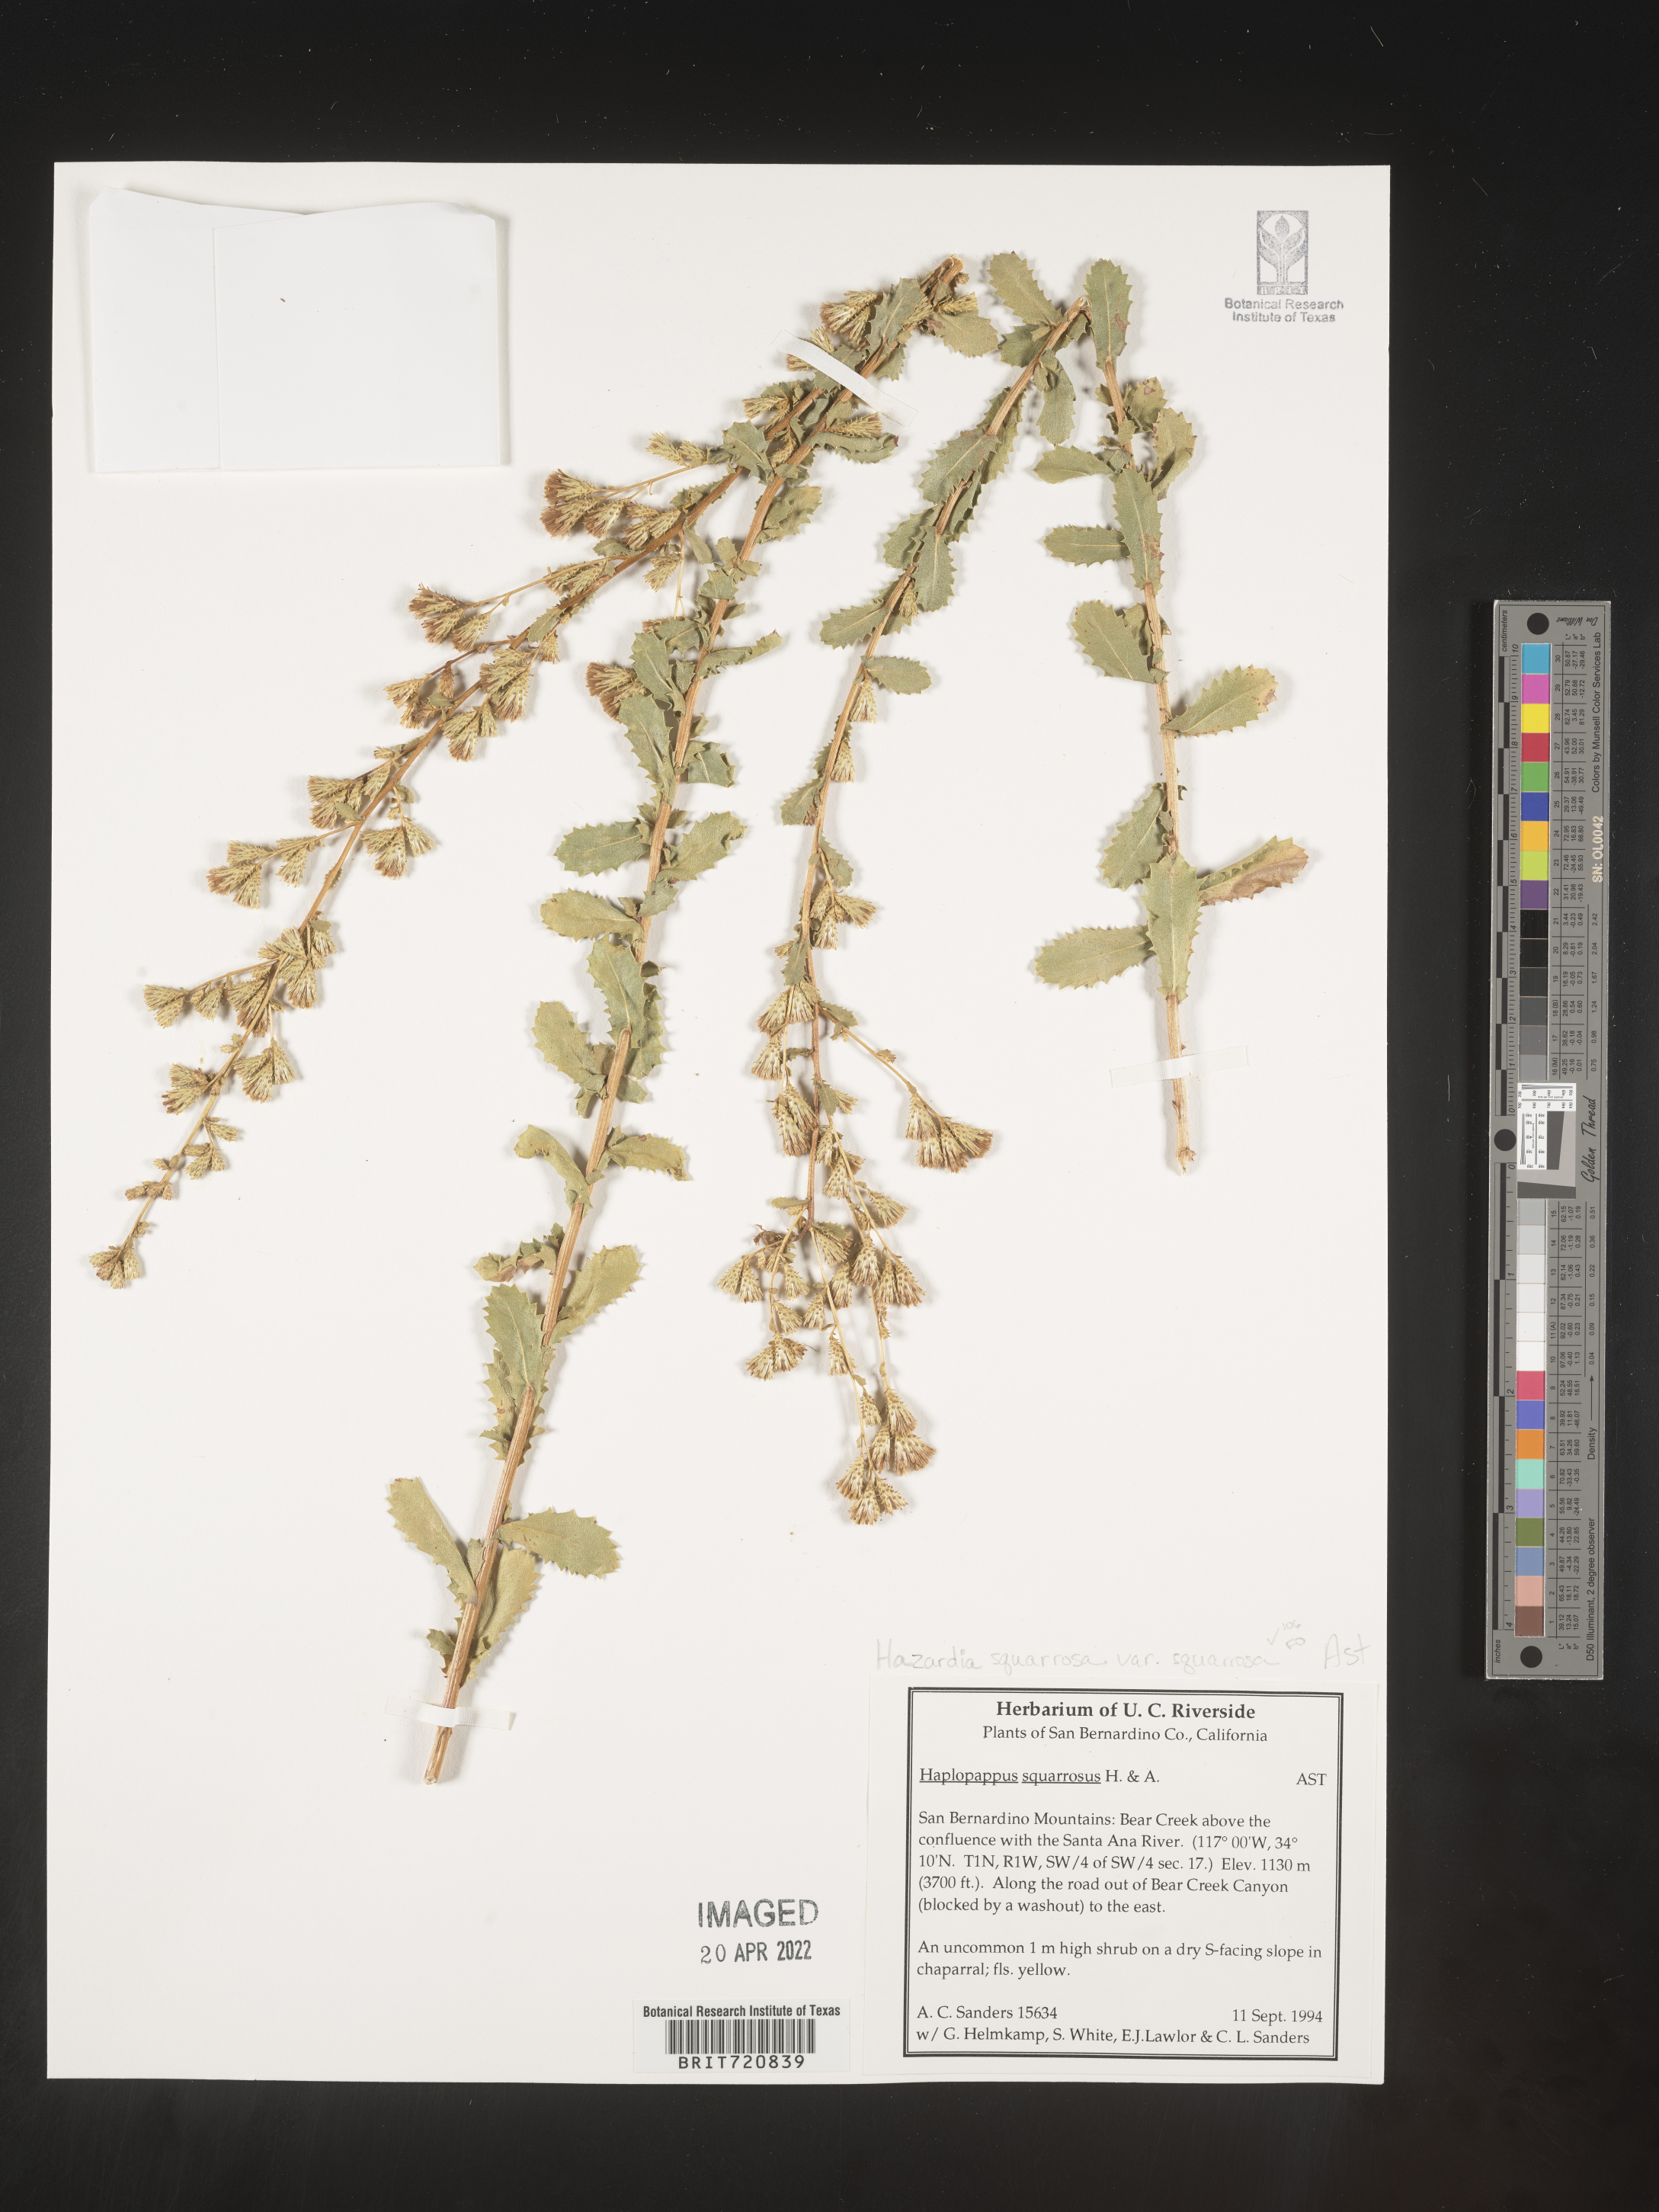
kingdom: Plantae
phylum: Tracheophyta
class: Magnoliopsida
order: Asterales
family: Asteraceae
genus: Hazardia
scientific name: Hazardia squarrosa
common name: Saw-tooth goldenbush
